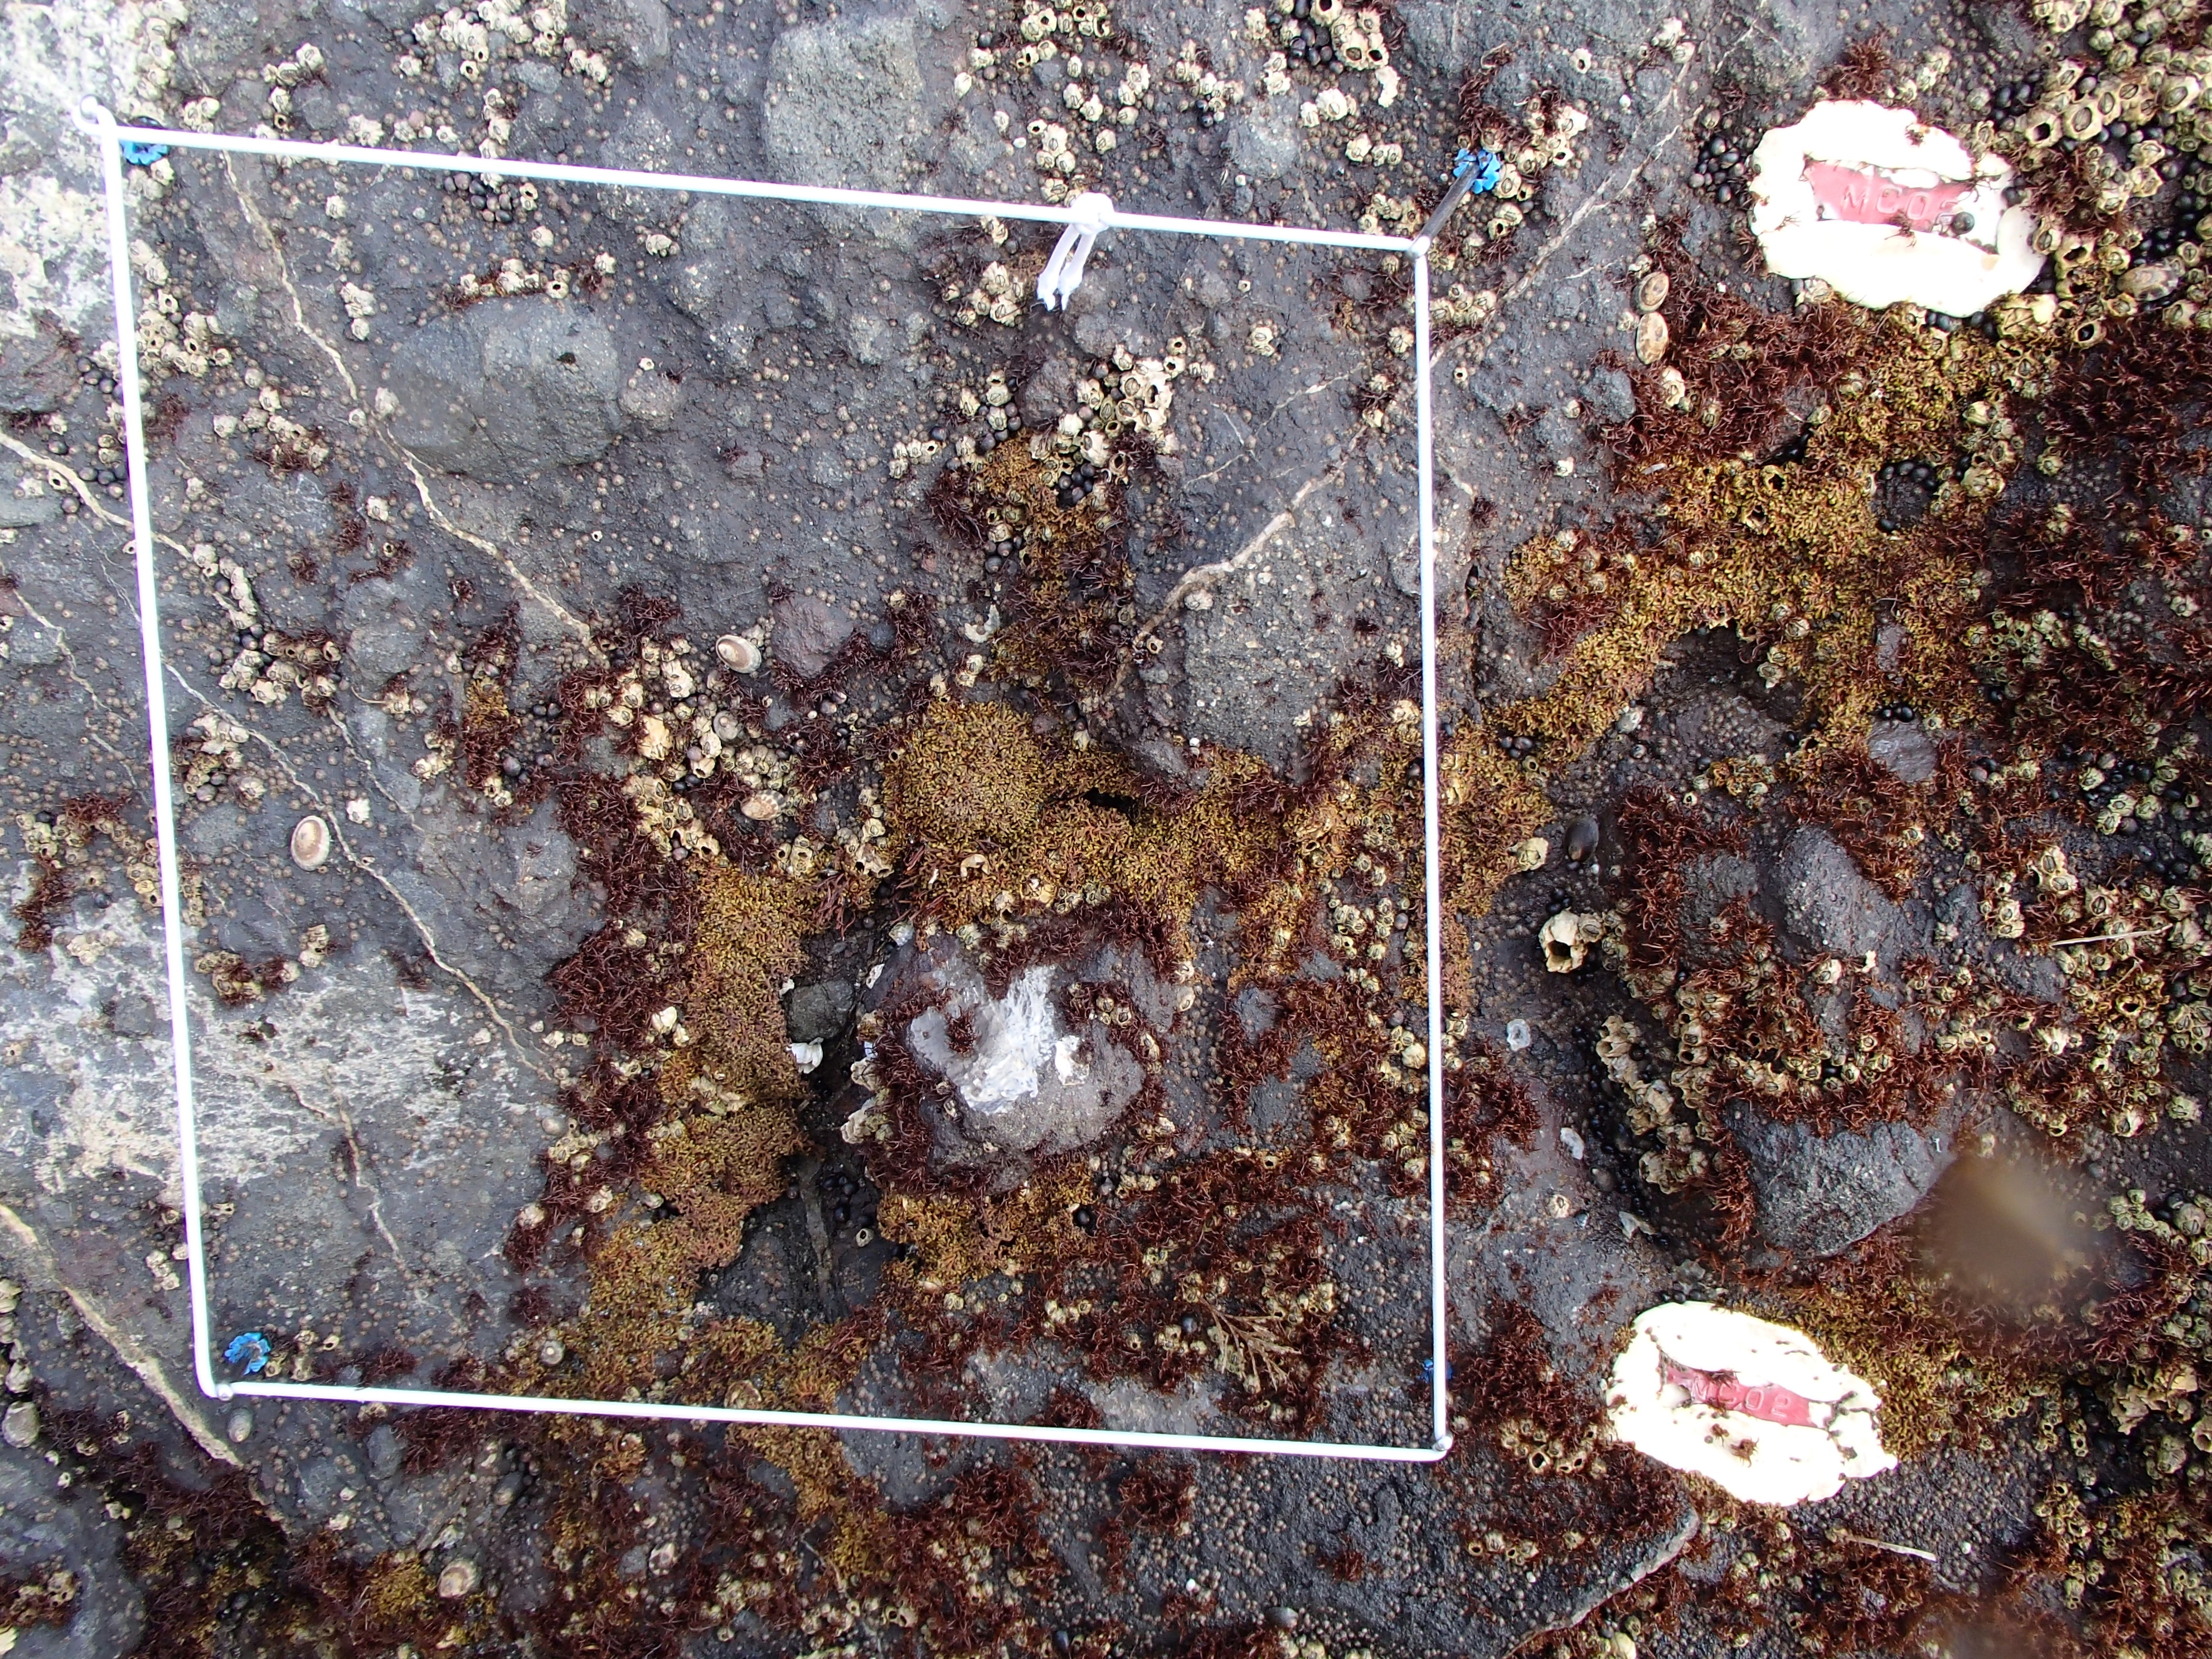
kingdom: Animalia
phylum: Arthropoda
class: Maxillopoda
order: Sessilia
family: Chthamalidae
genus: Chthamalus
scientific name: Chthamalus dalli
